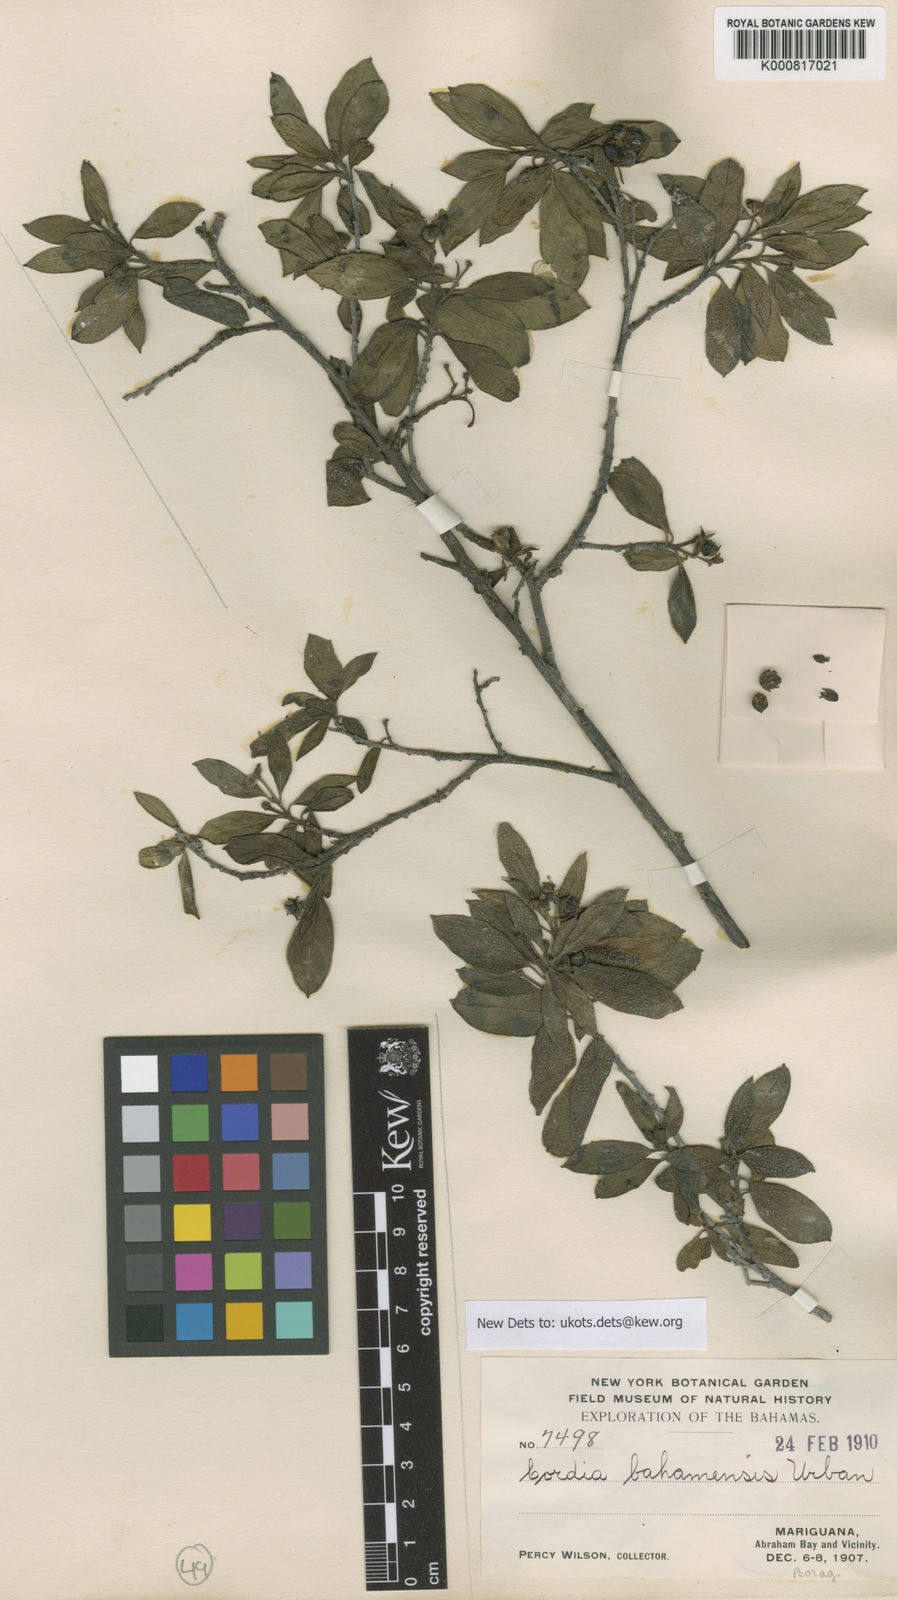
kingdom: Plantae
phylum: Tracheophyta
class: Magnoliopsida
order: Boraginales
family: Cordiaceae
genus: Varronia
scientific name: Varronia bahamensis
